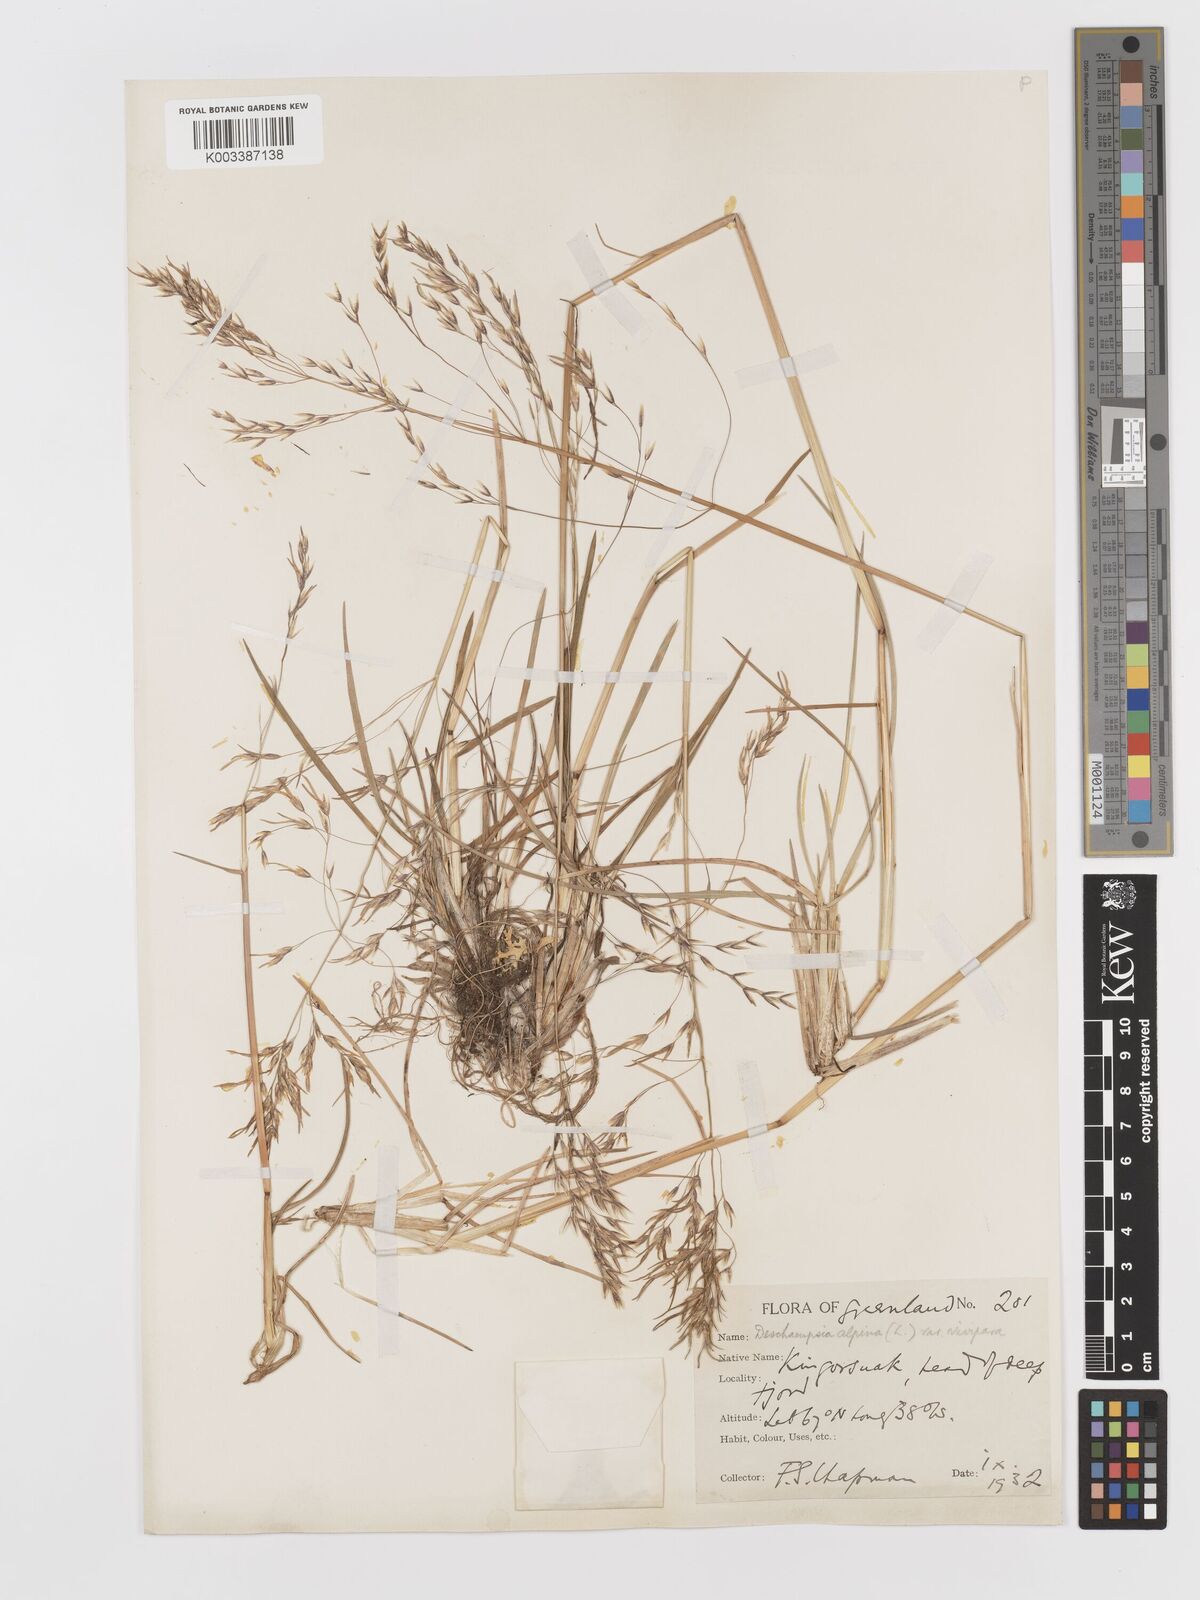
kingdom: Plantae
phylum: Tracheophyta
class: Liliopsida
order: Poales
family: Poaceae
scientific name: Poaceae
